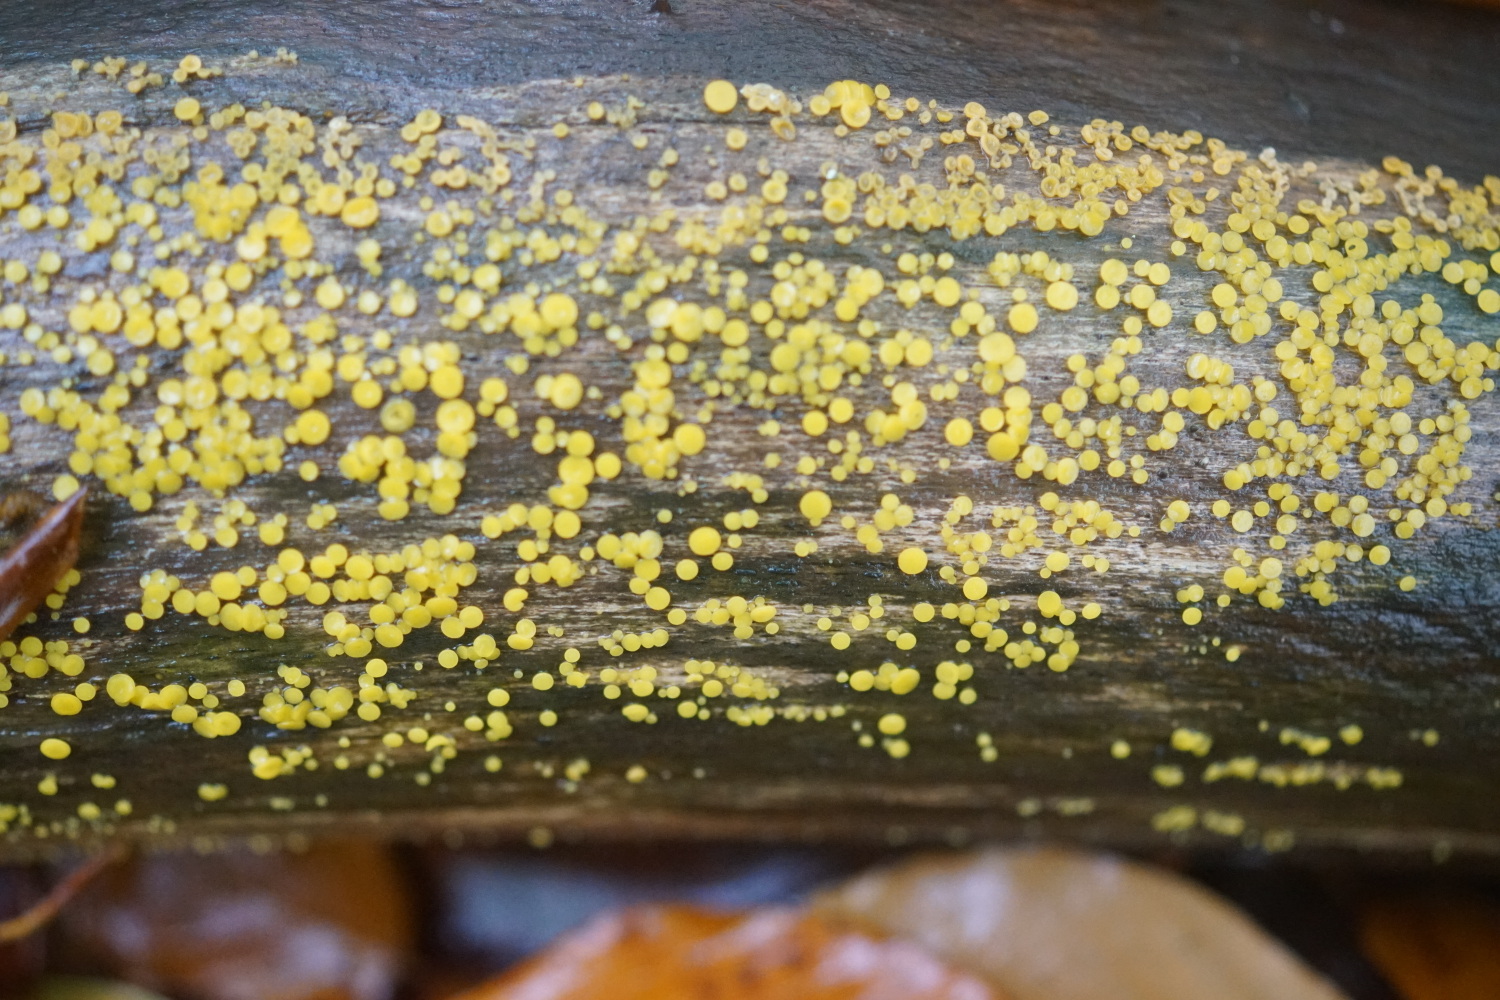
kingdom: Fungi
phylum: Ascomycota
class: Leotiomycetes
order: Helotiales
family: Pezizellaceae
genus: Calycina
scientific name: Calycina citrina
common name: almindelig gulskive
